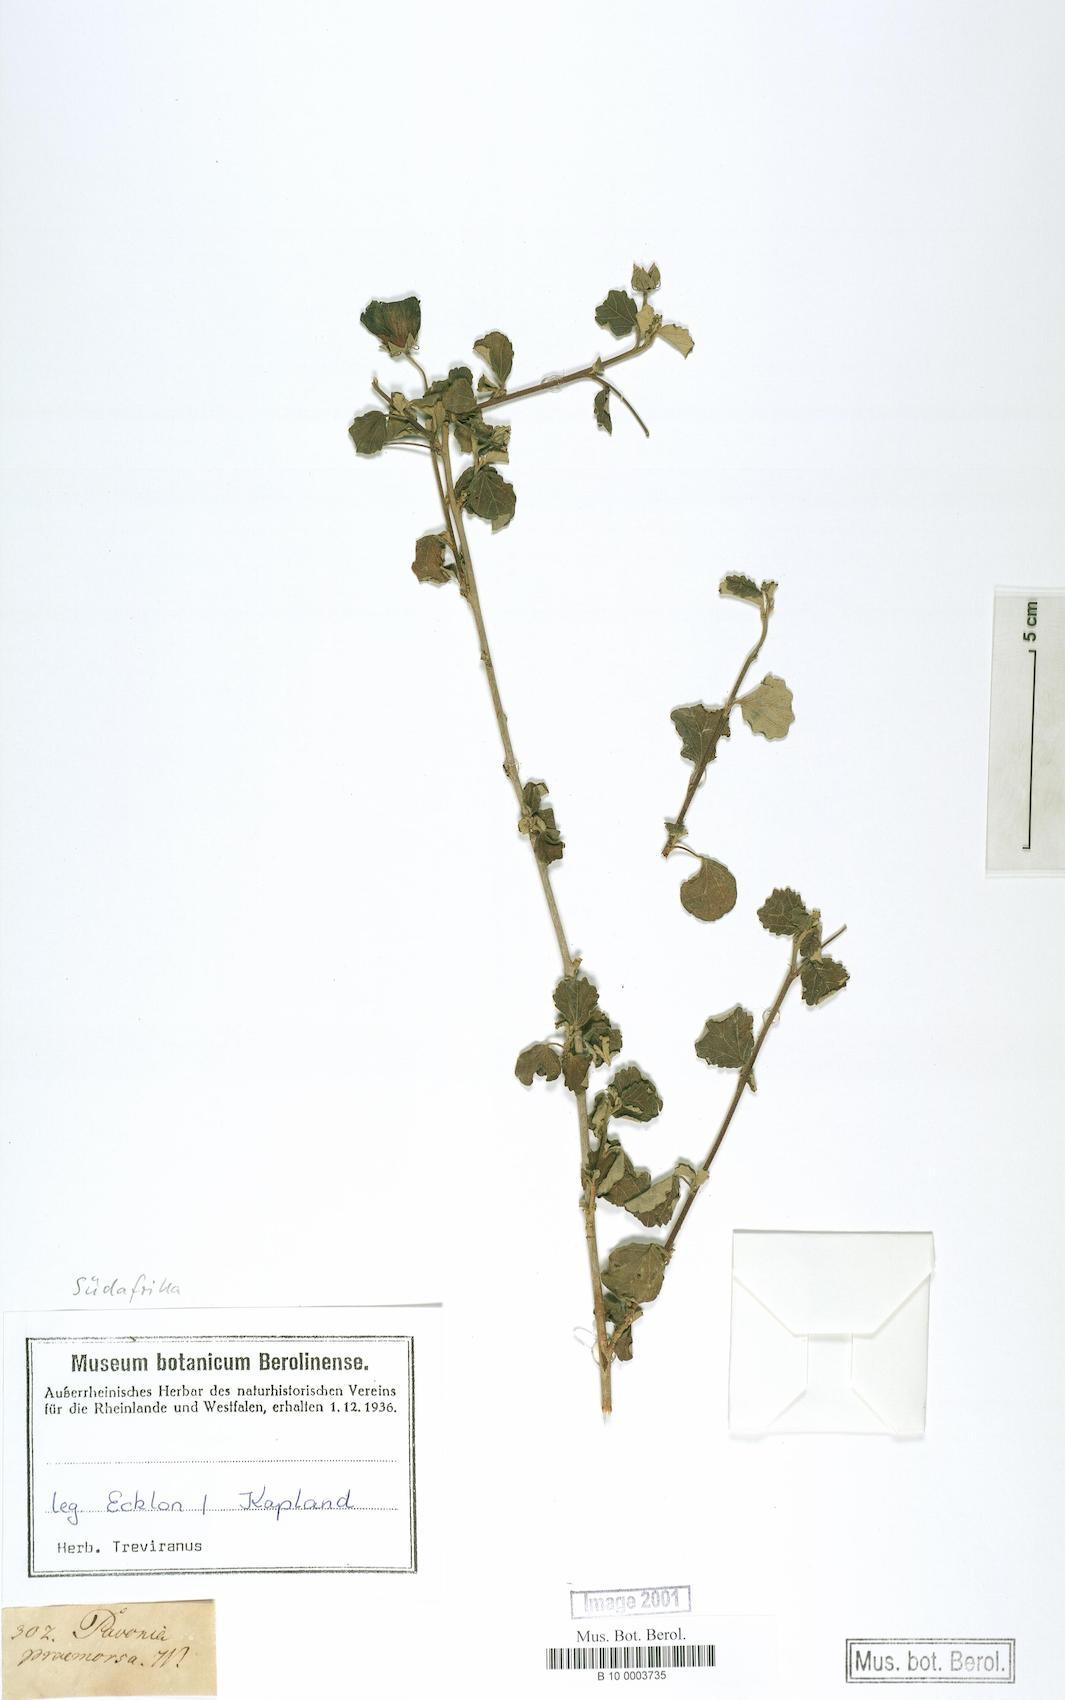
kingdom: Plantae
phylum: Tracheophyta
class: Magnoliopsida
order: Malvales
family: Malvaceae
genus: Pavonia
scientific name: Pavonia praemorsa
